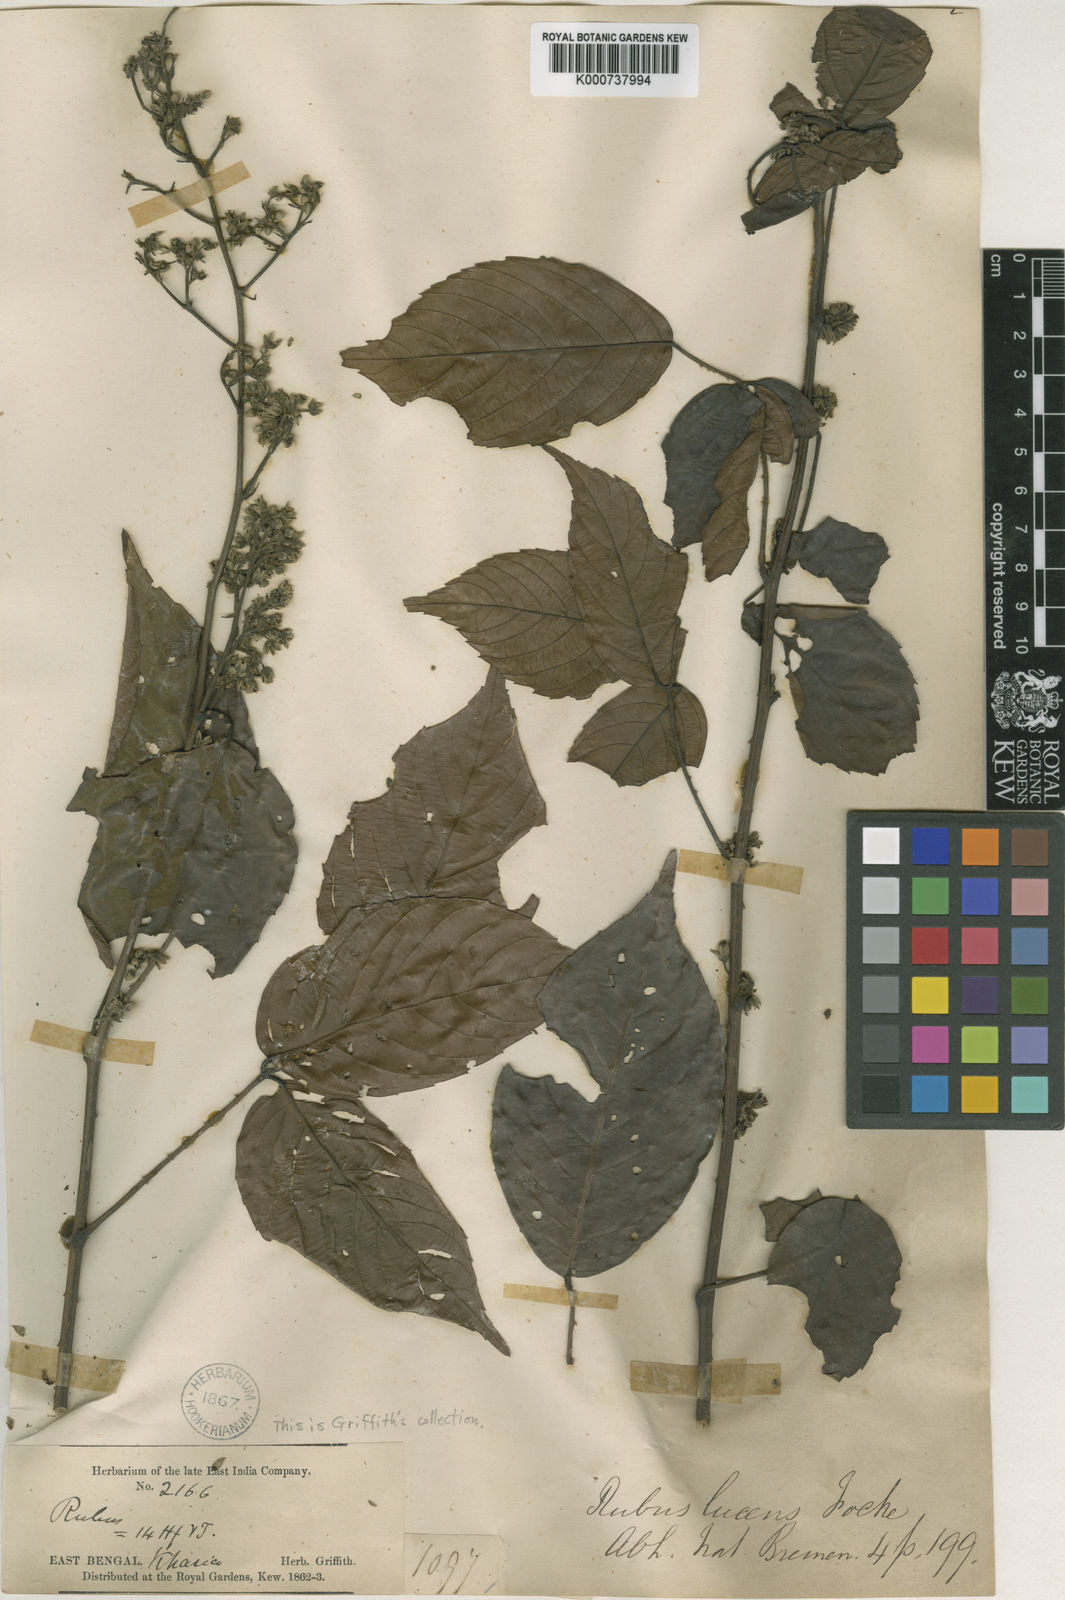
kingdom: Plantae
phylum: Tracheophyta
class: Magnoliopsida
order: Rosales
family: Rosaceae
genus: Rubus
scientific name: Rubus lucens
